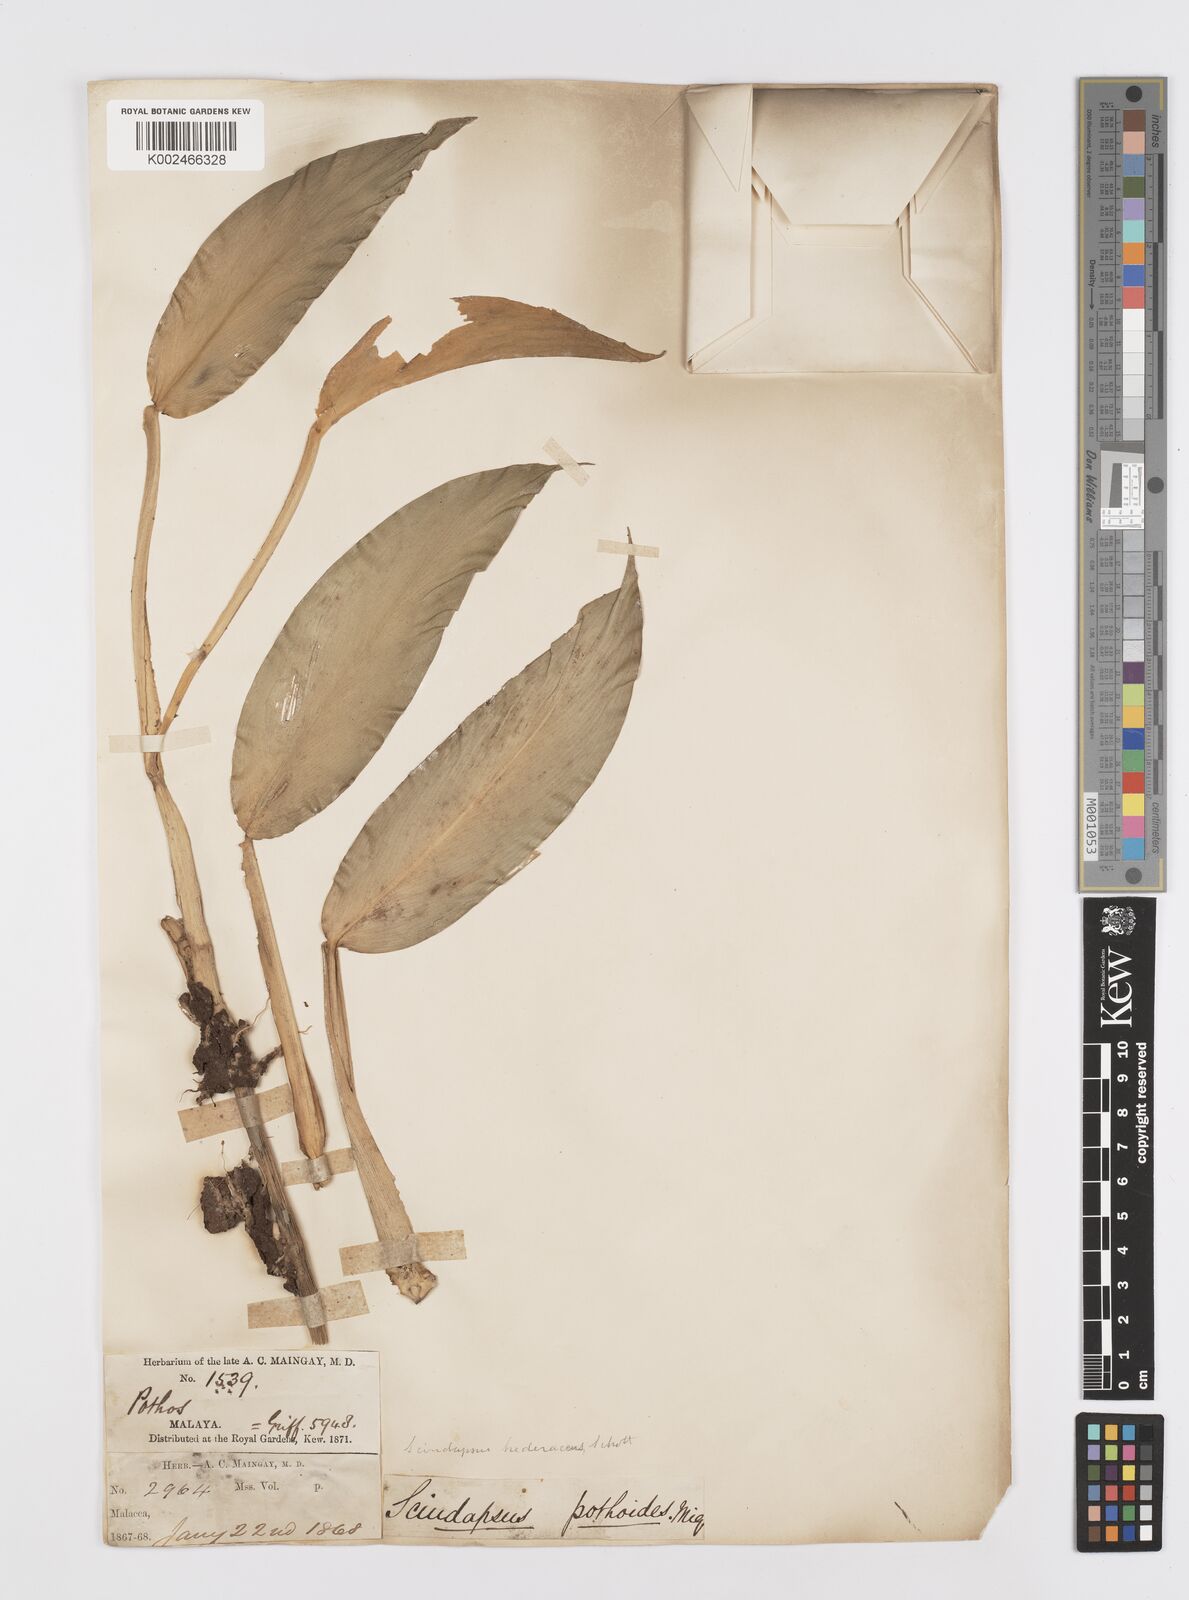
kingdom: Plantae
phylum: Tracheophyta
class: Liliopsida
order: Alismatales
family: Araceae
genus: Scindapsus
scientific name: Scindapsus hederaceus
